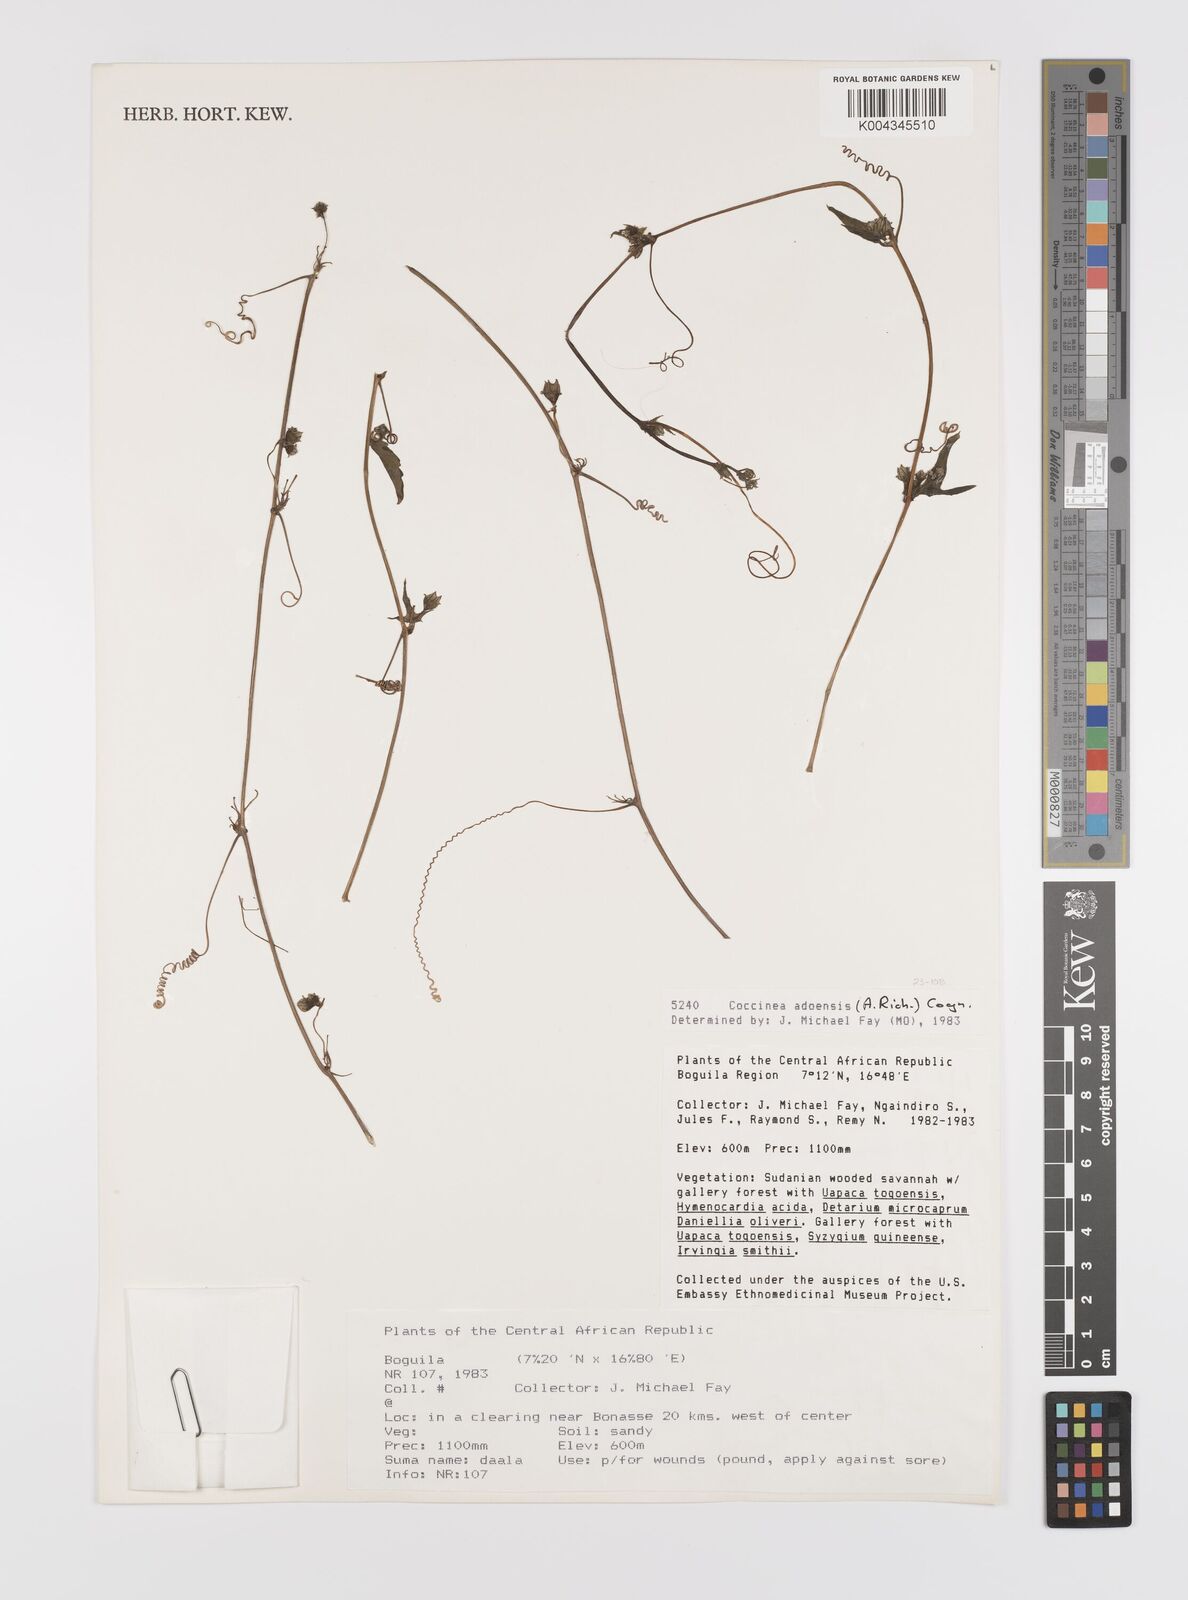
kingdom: Plantae
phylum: Tracheophyta
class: Magnoliopsida
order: Cucurbitales
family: Cucurbitaceae
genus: Coccinia
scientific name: Coccinia adoensis
